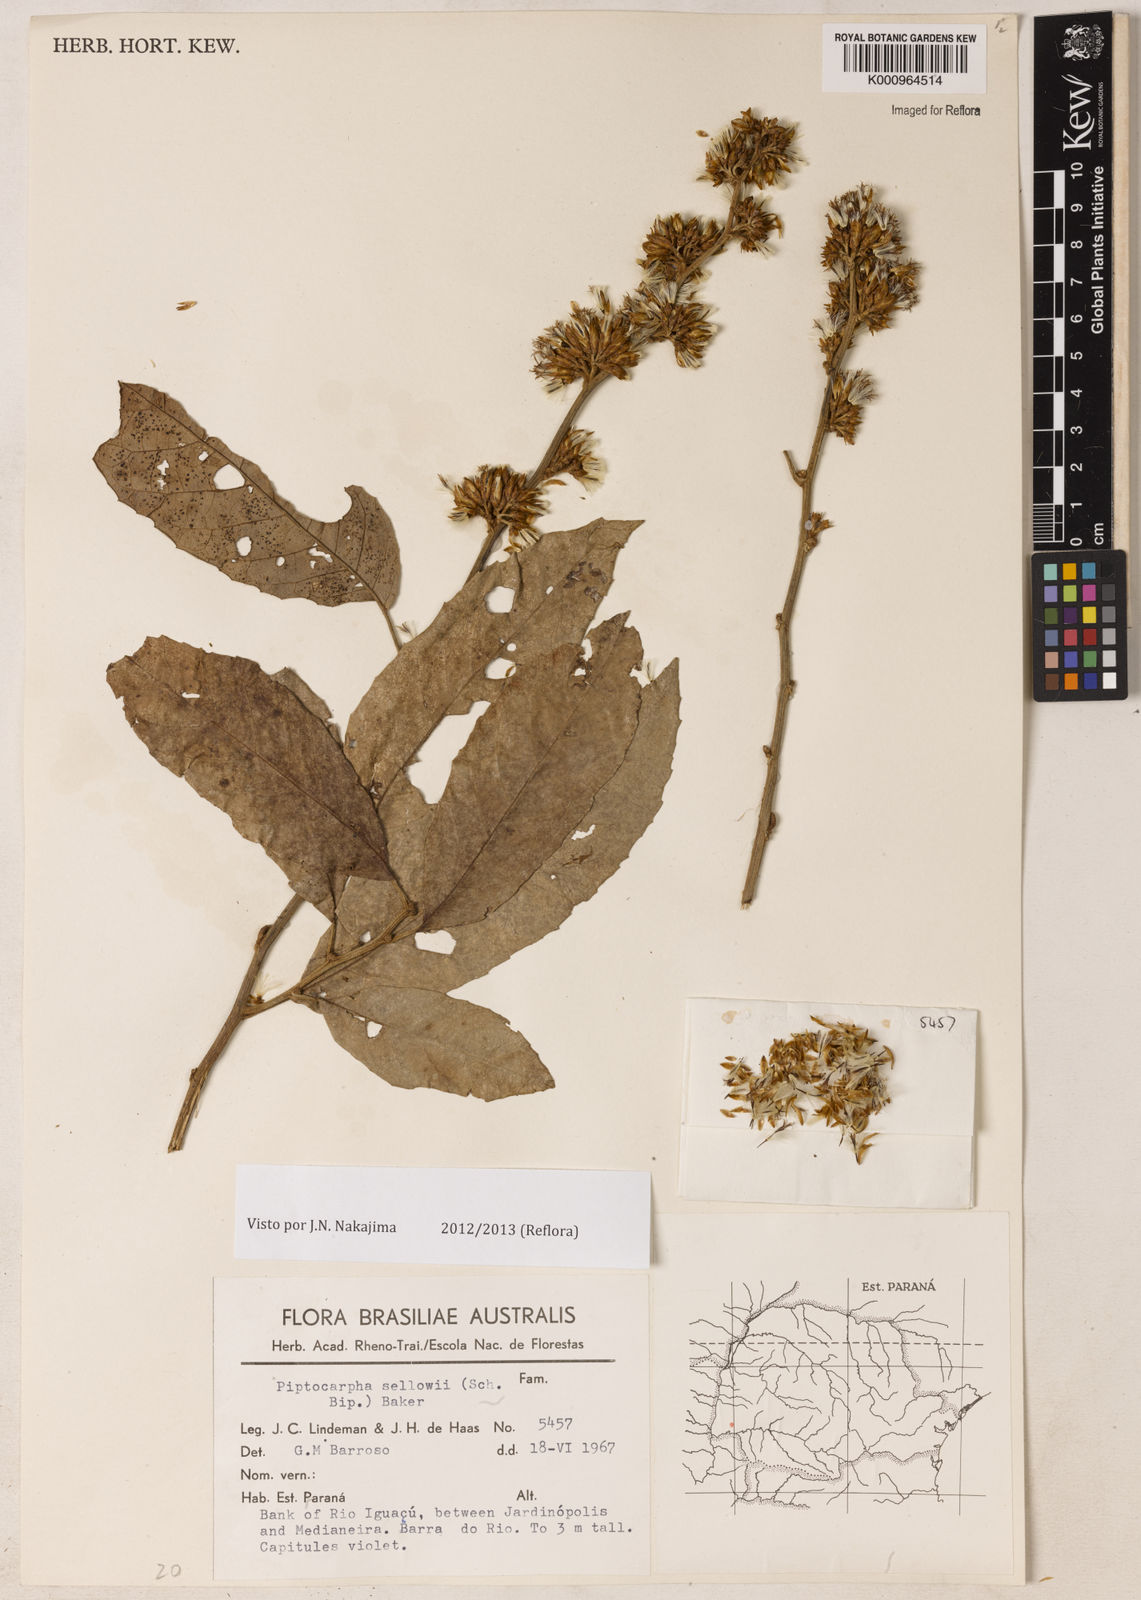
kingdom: Plantae
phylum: Tracheophyta
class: Magnoliopsida
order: Asterales
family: Asteraceae
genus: Piptocarpha
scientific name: Piptocarpha lundiana
